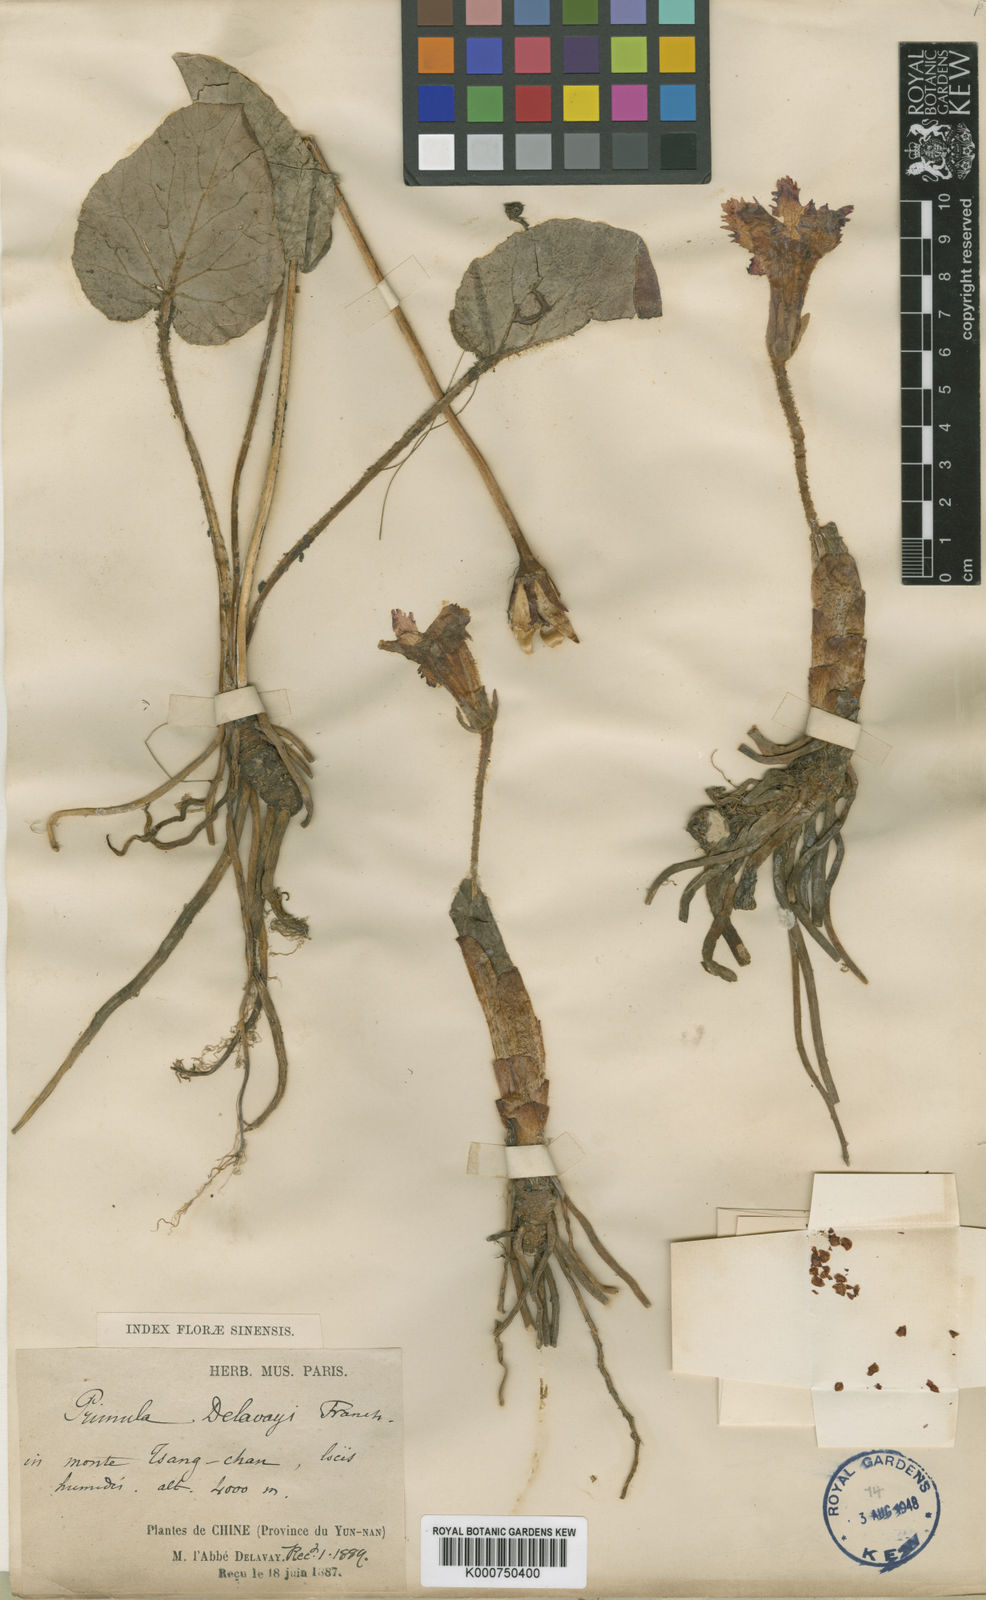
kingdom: Plantae
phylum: Tracheophyta
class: Magnoliopsida
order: Ericales
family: Primulaceae
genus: Omphalogramma
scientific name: Omphalogramma delavayi
